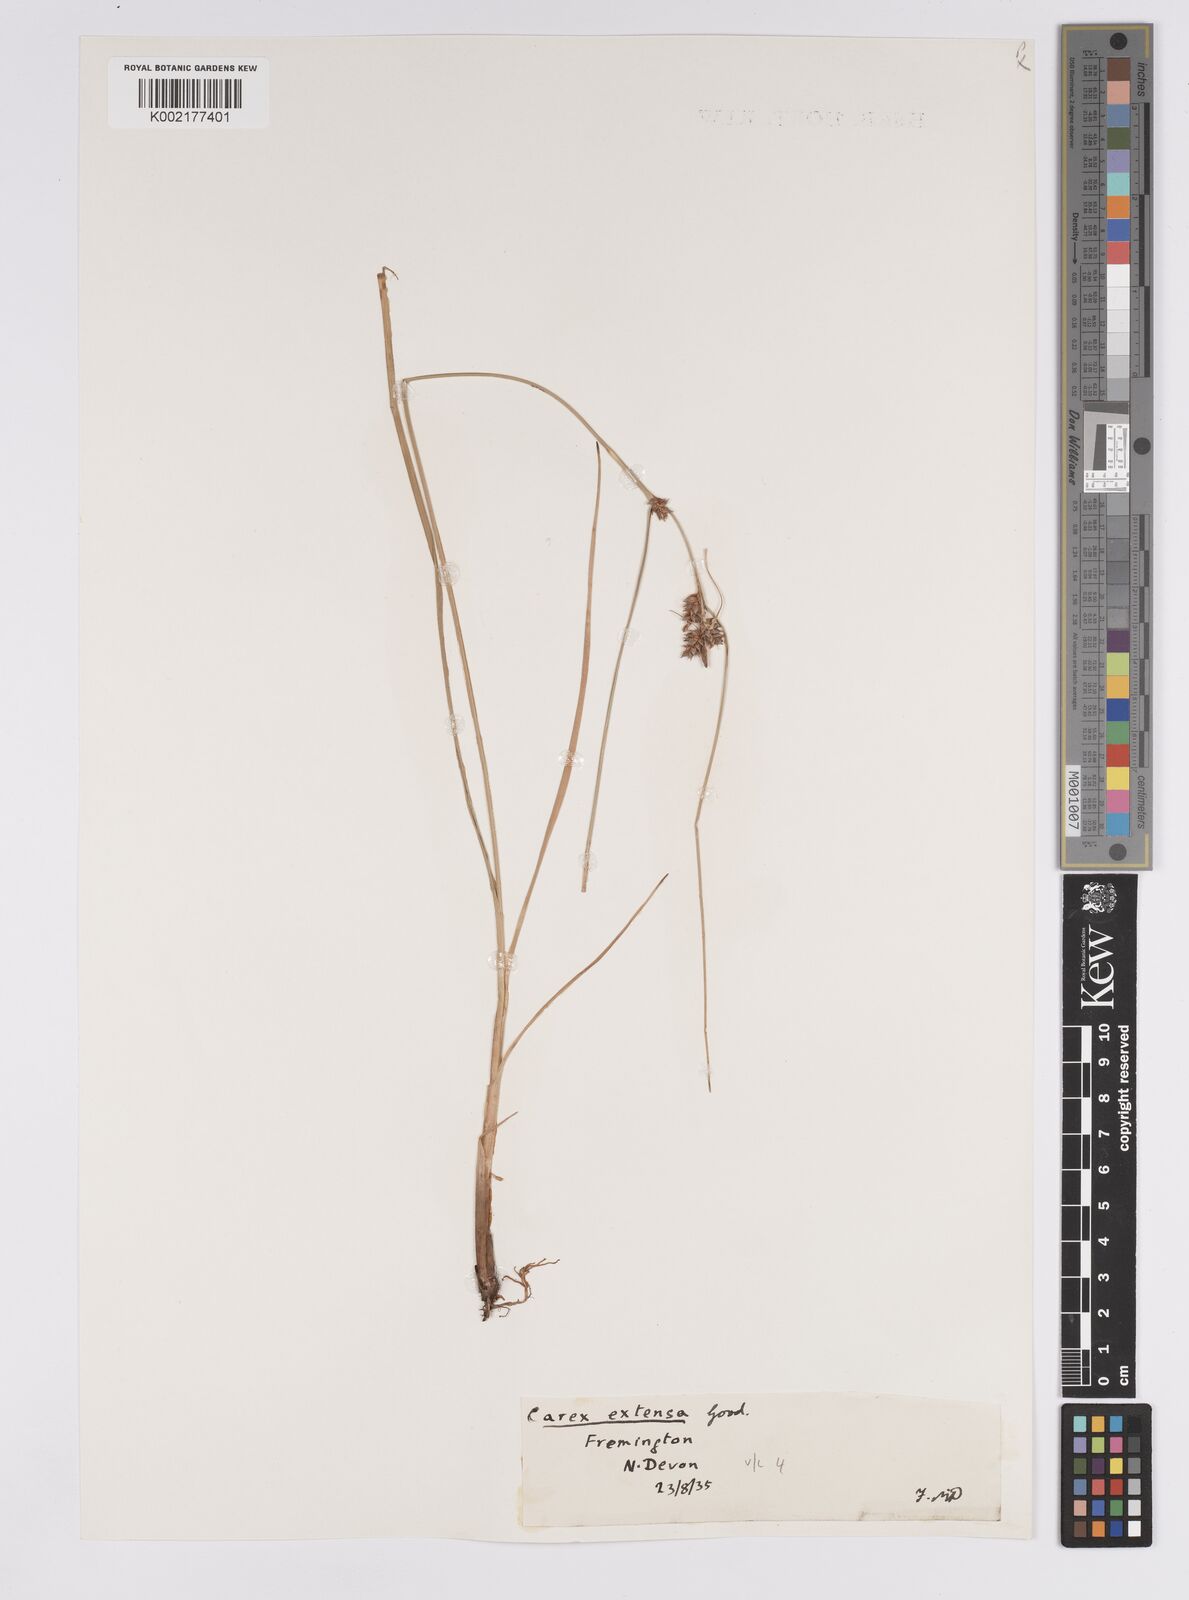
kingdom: Plantae
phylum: Tracheophyta
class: Liliopsida
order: Poales
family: Cyperaceae
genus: Carex
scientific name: Carex extensa
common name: Long-bracted sedge
